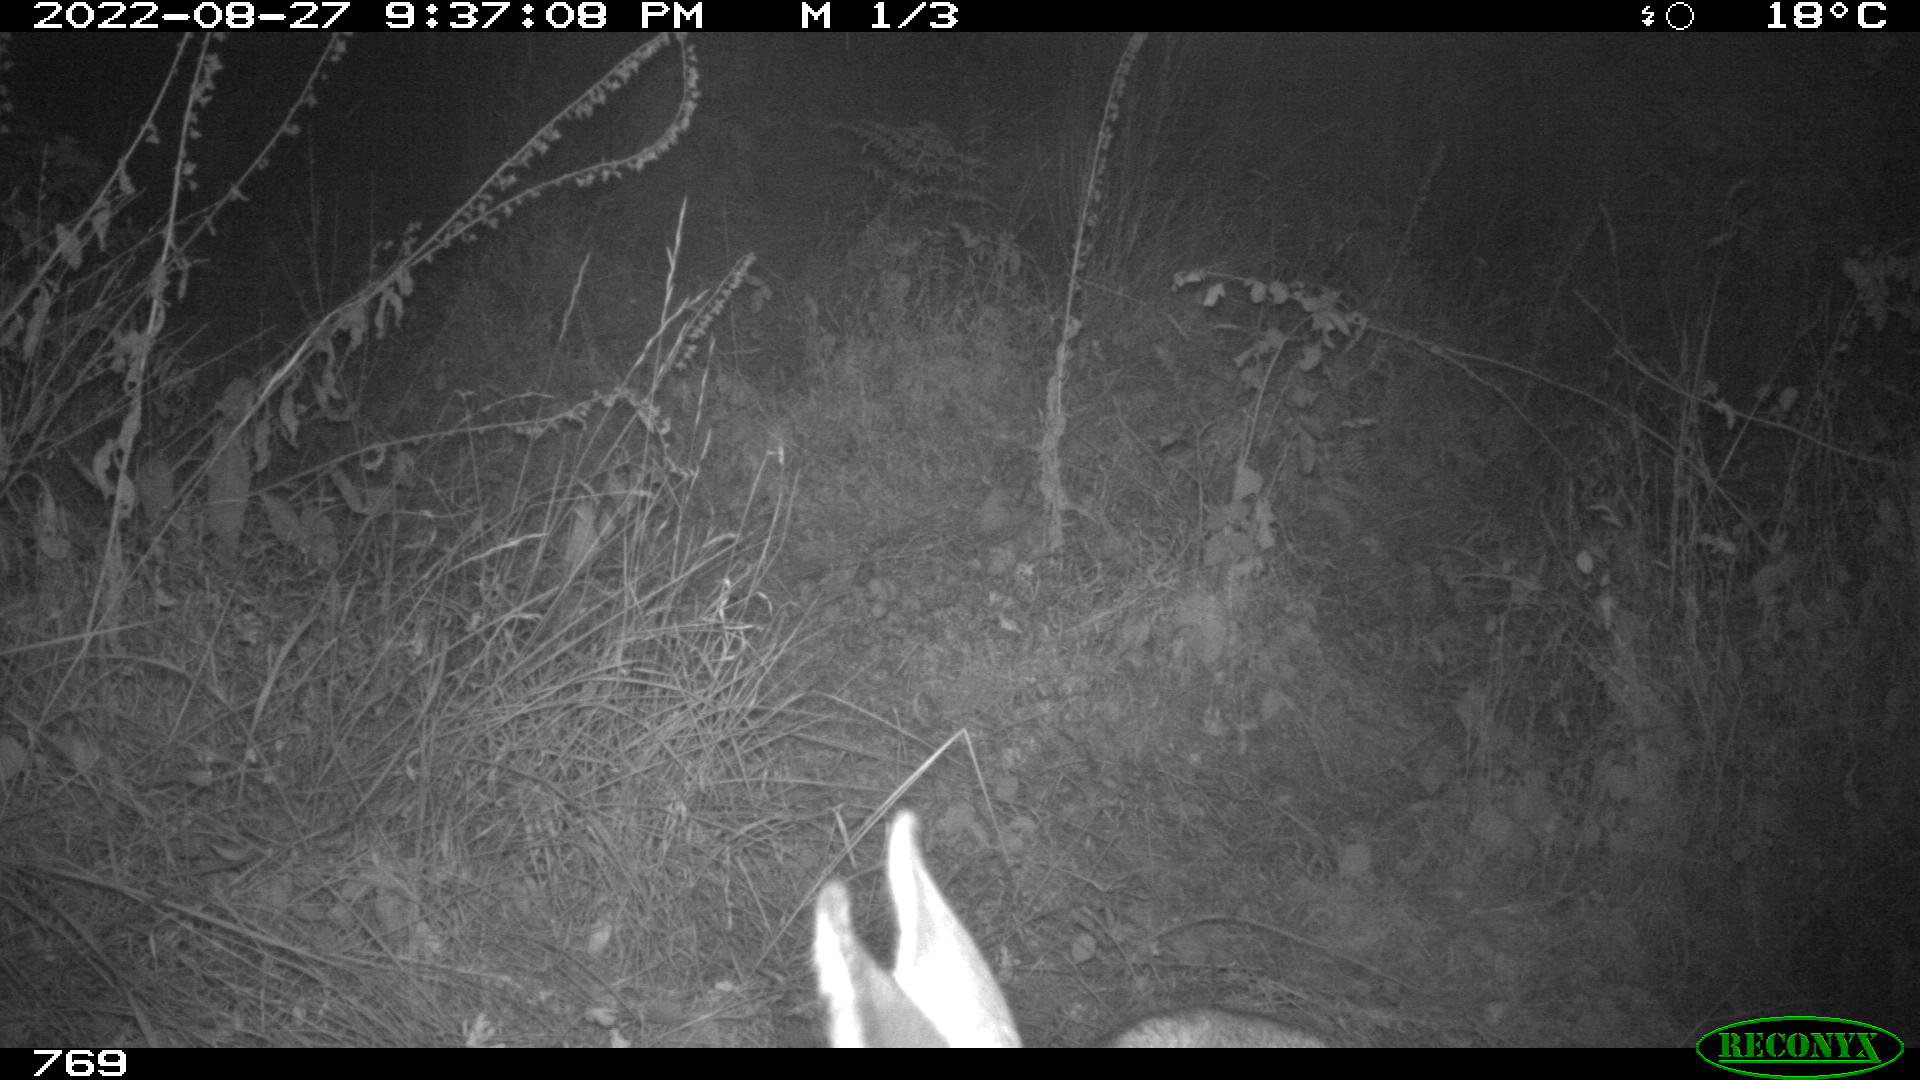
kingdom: Animalia
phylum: Chordata
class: Mammalia
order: Artiodactyla
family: Cervidae
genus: Capreolus
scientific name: Capreolus capreolus
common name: Western roe deer
